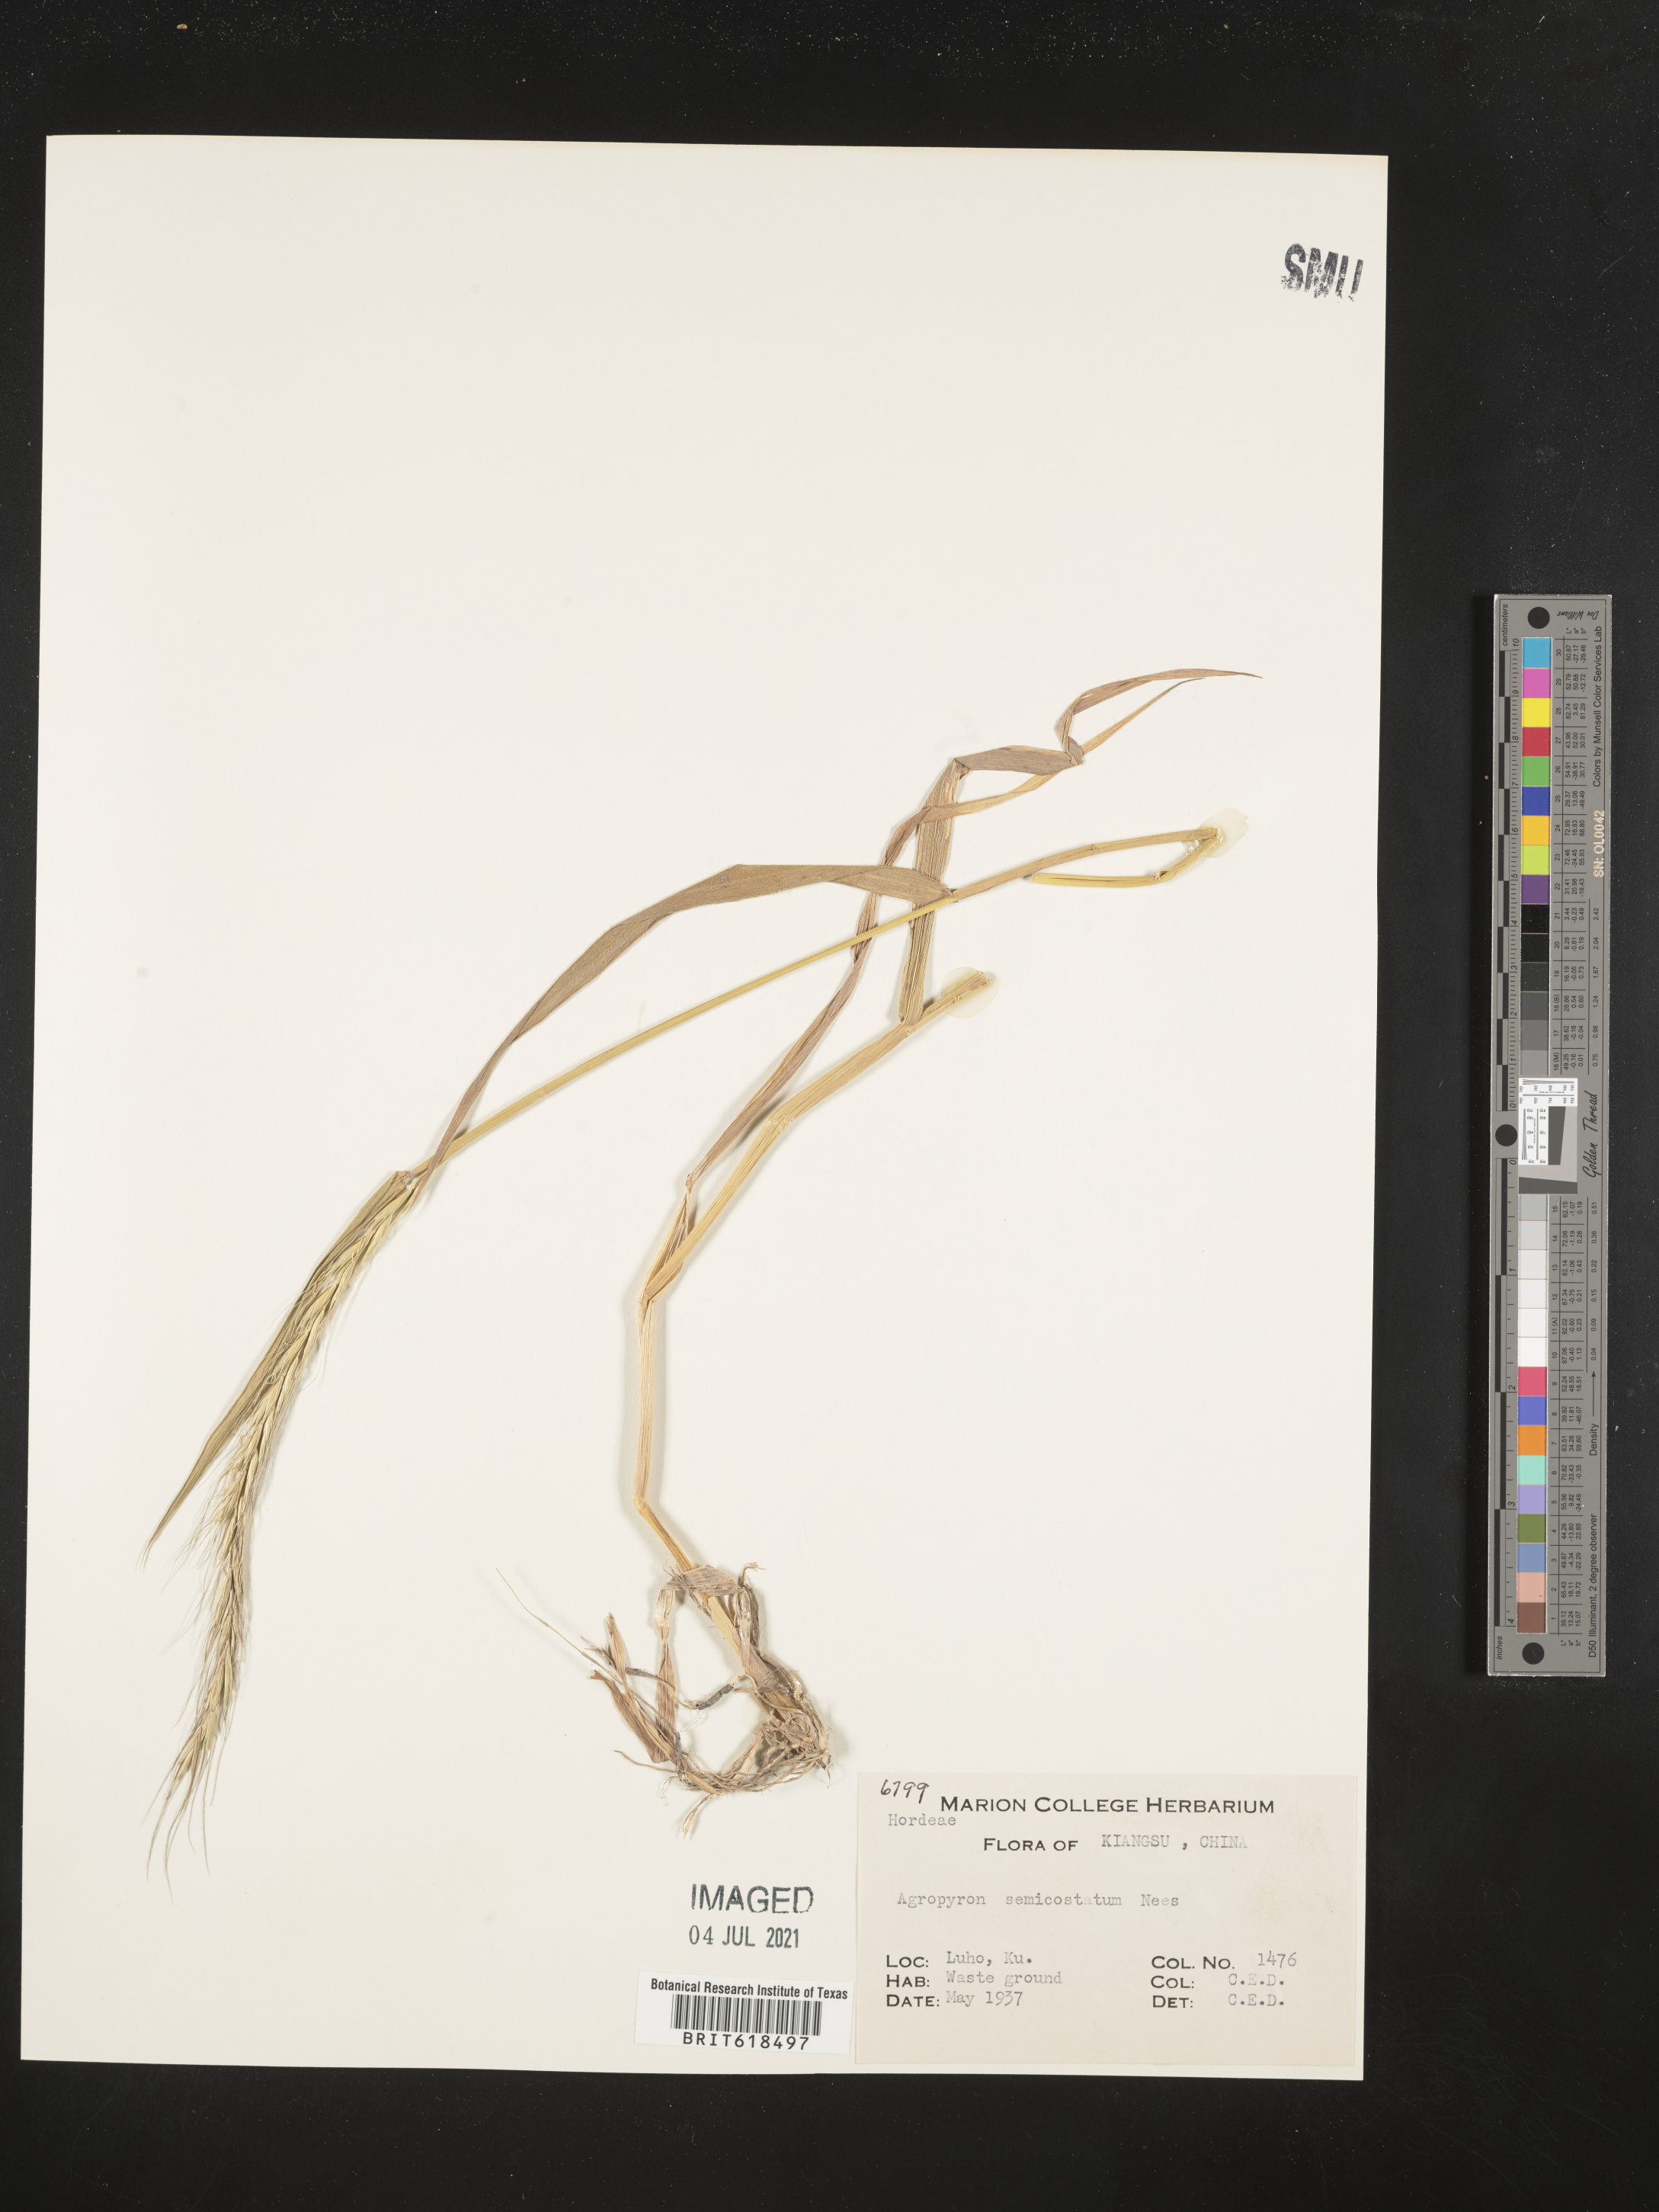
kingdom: Plantae
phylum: Tracheophyta
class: Liliopsida
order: Poales
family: Poaceae
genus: Elymus
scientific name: Elymus semicostatus
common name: Drooping wildrye
